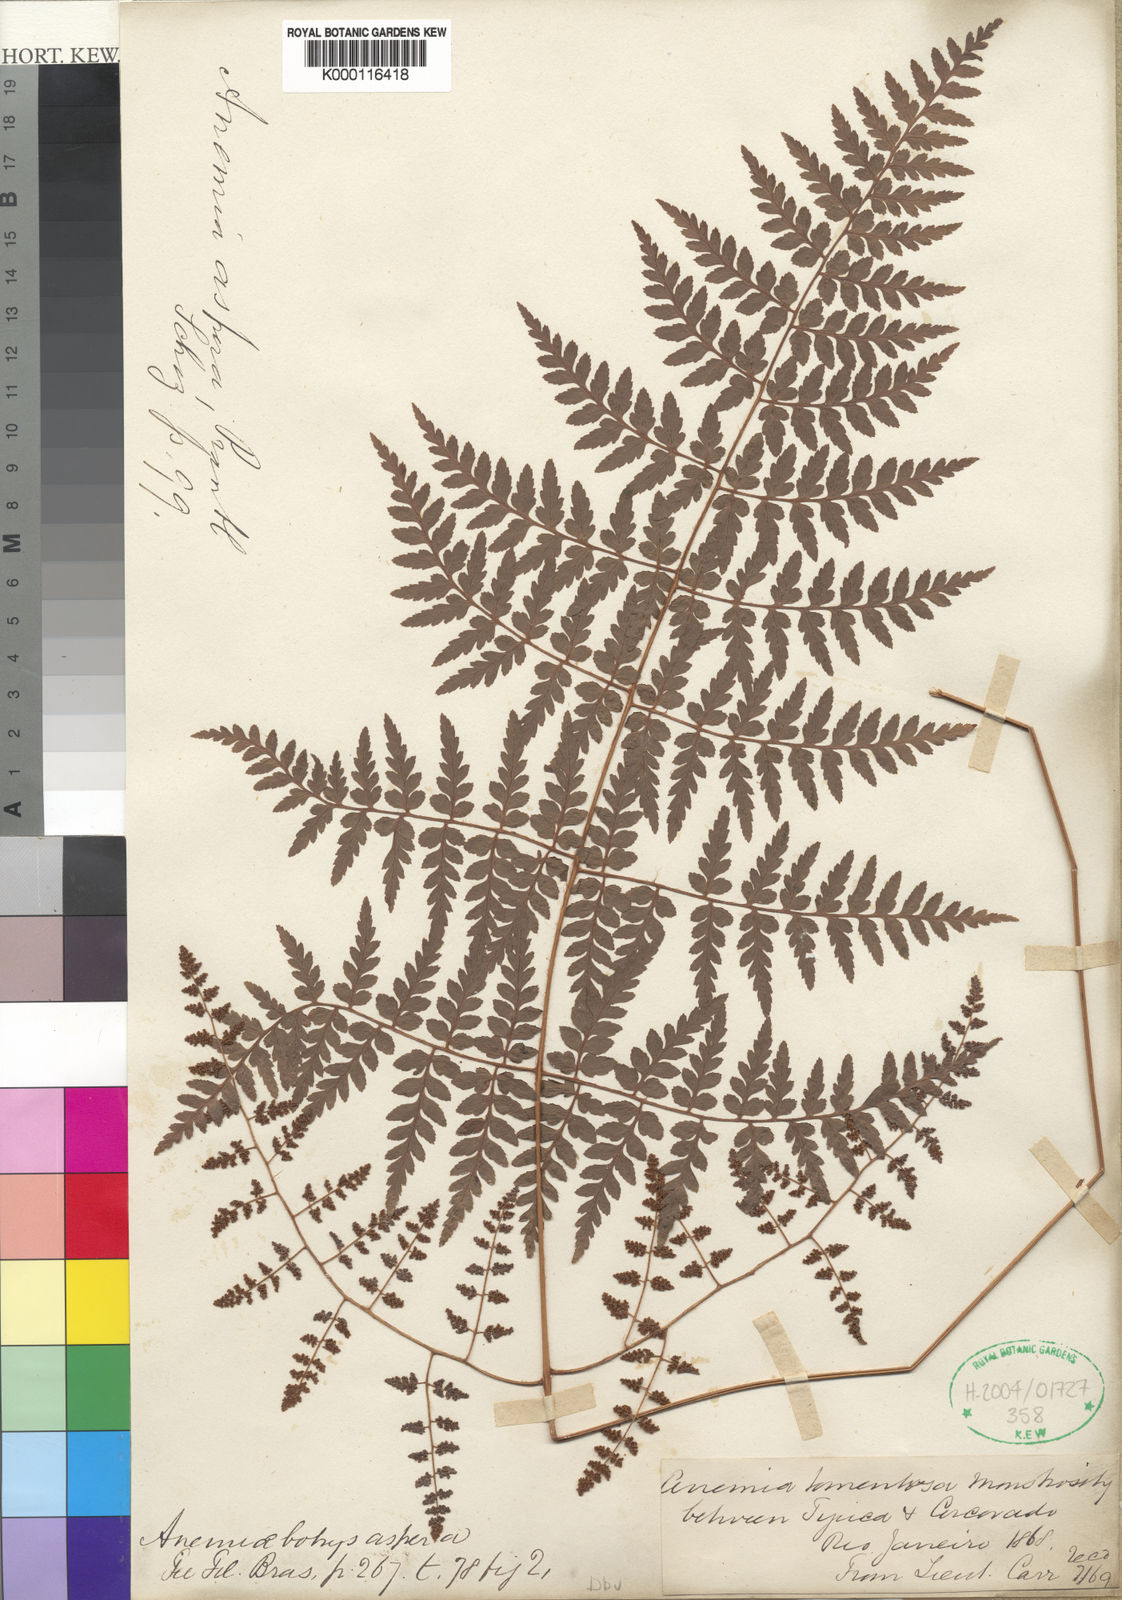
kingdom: Plantae
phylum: Tracheophyta
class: Polypodiopsida
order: Schizaeales
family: Anemiaceae
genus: Anemia
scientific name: Anemia
